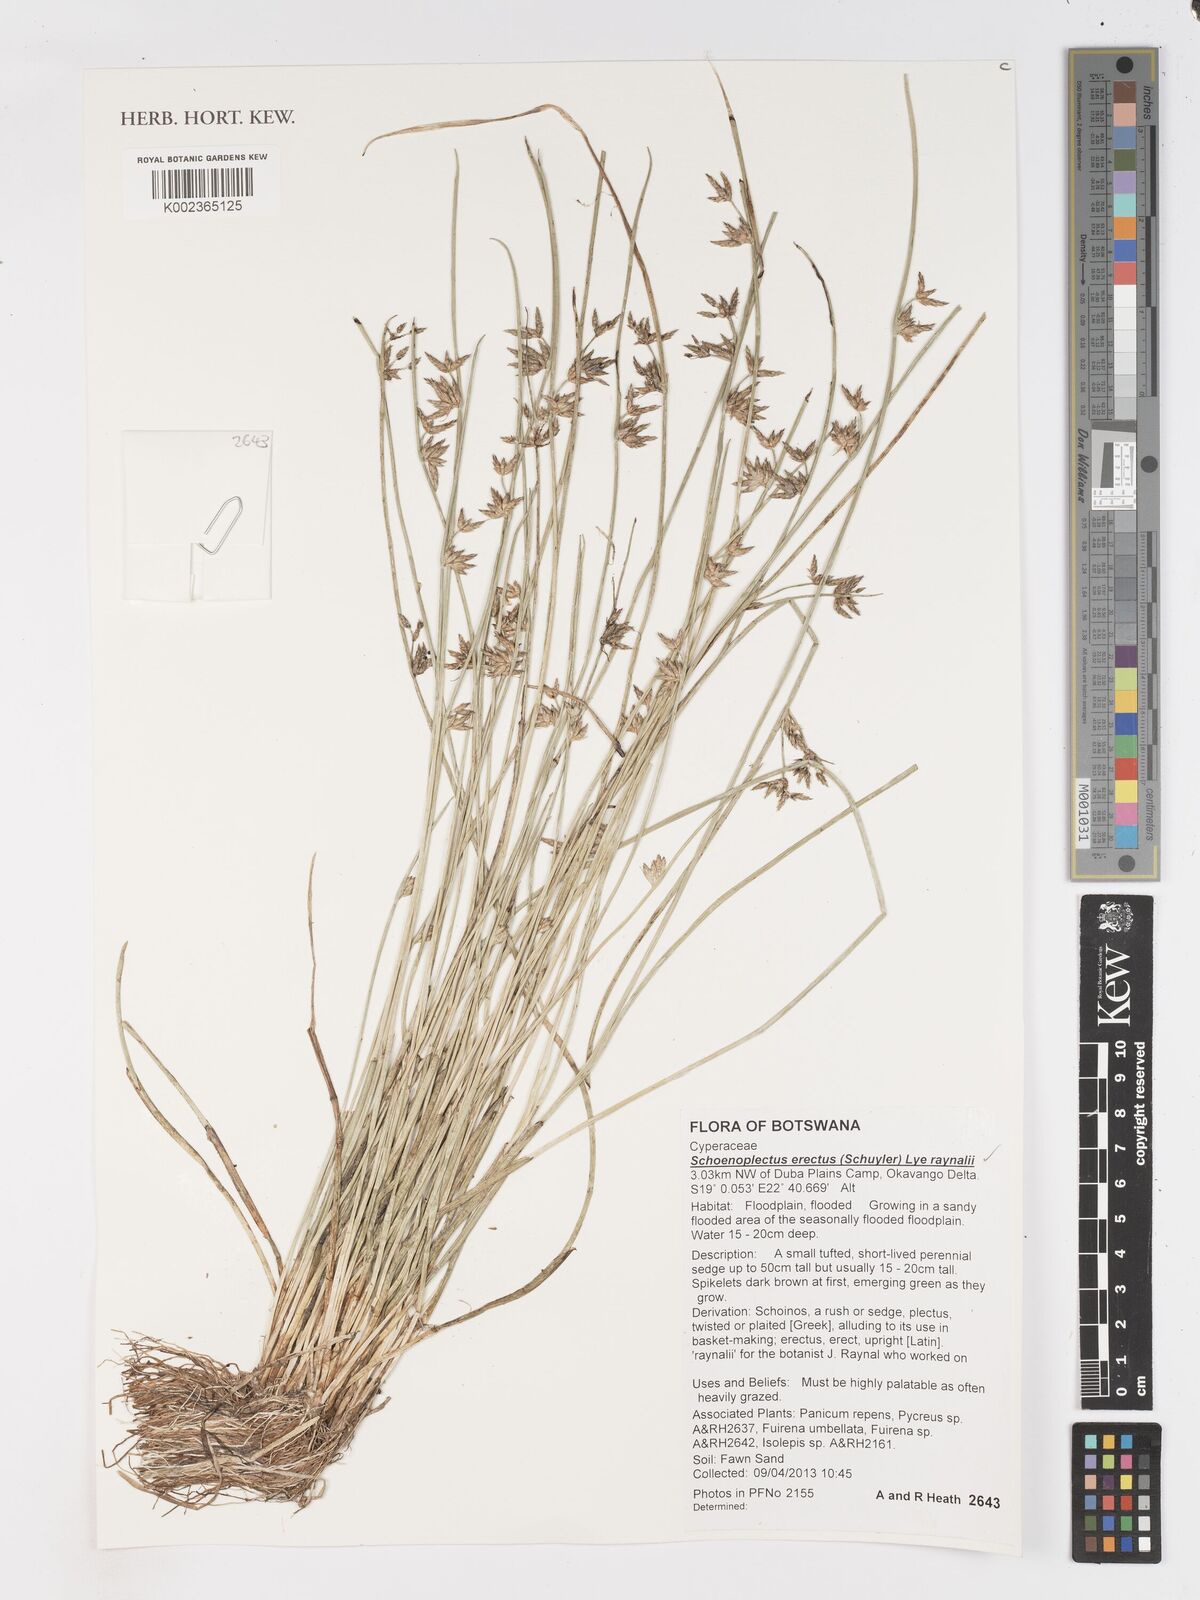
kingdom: Plantae
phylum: Tracheophyta
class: Liliopsida
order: Poales
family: Cyperaceae
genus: Schoenoplectiella
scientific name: Schoenoplectiella erecta
